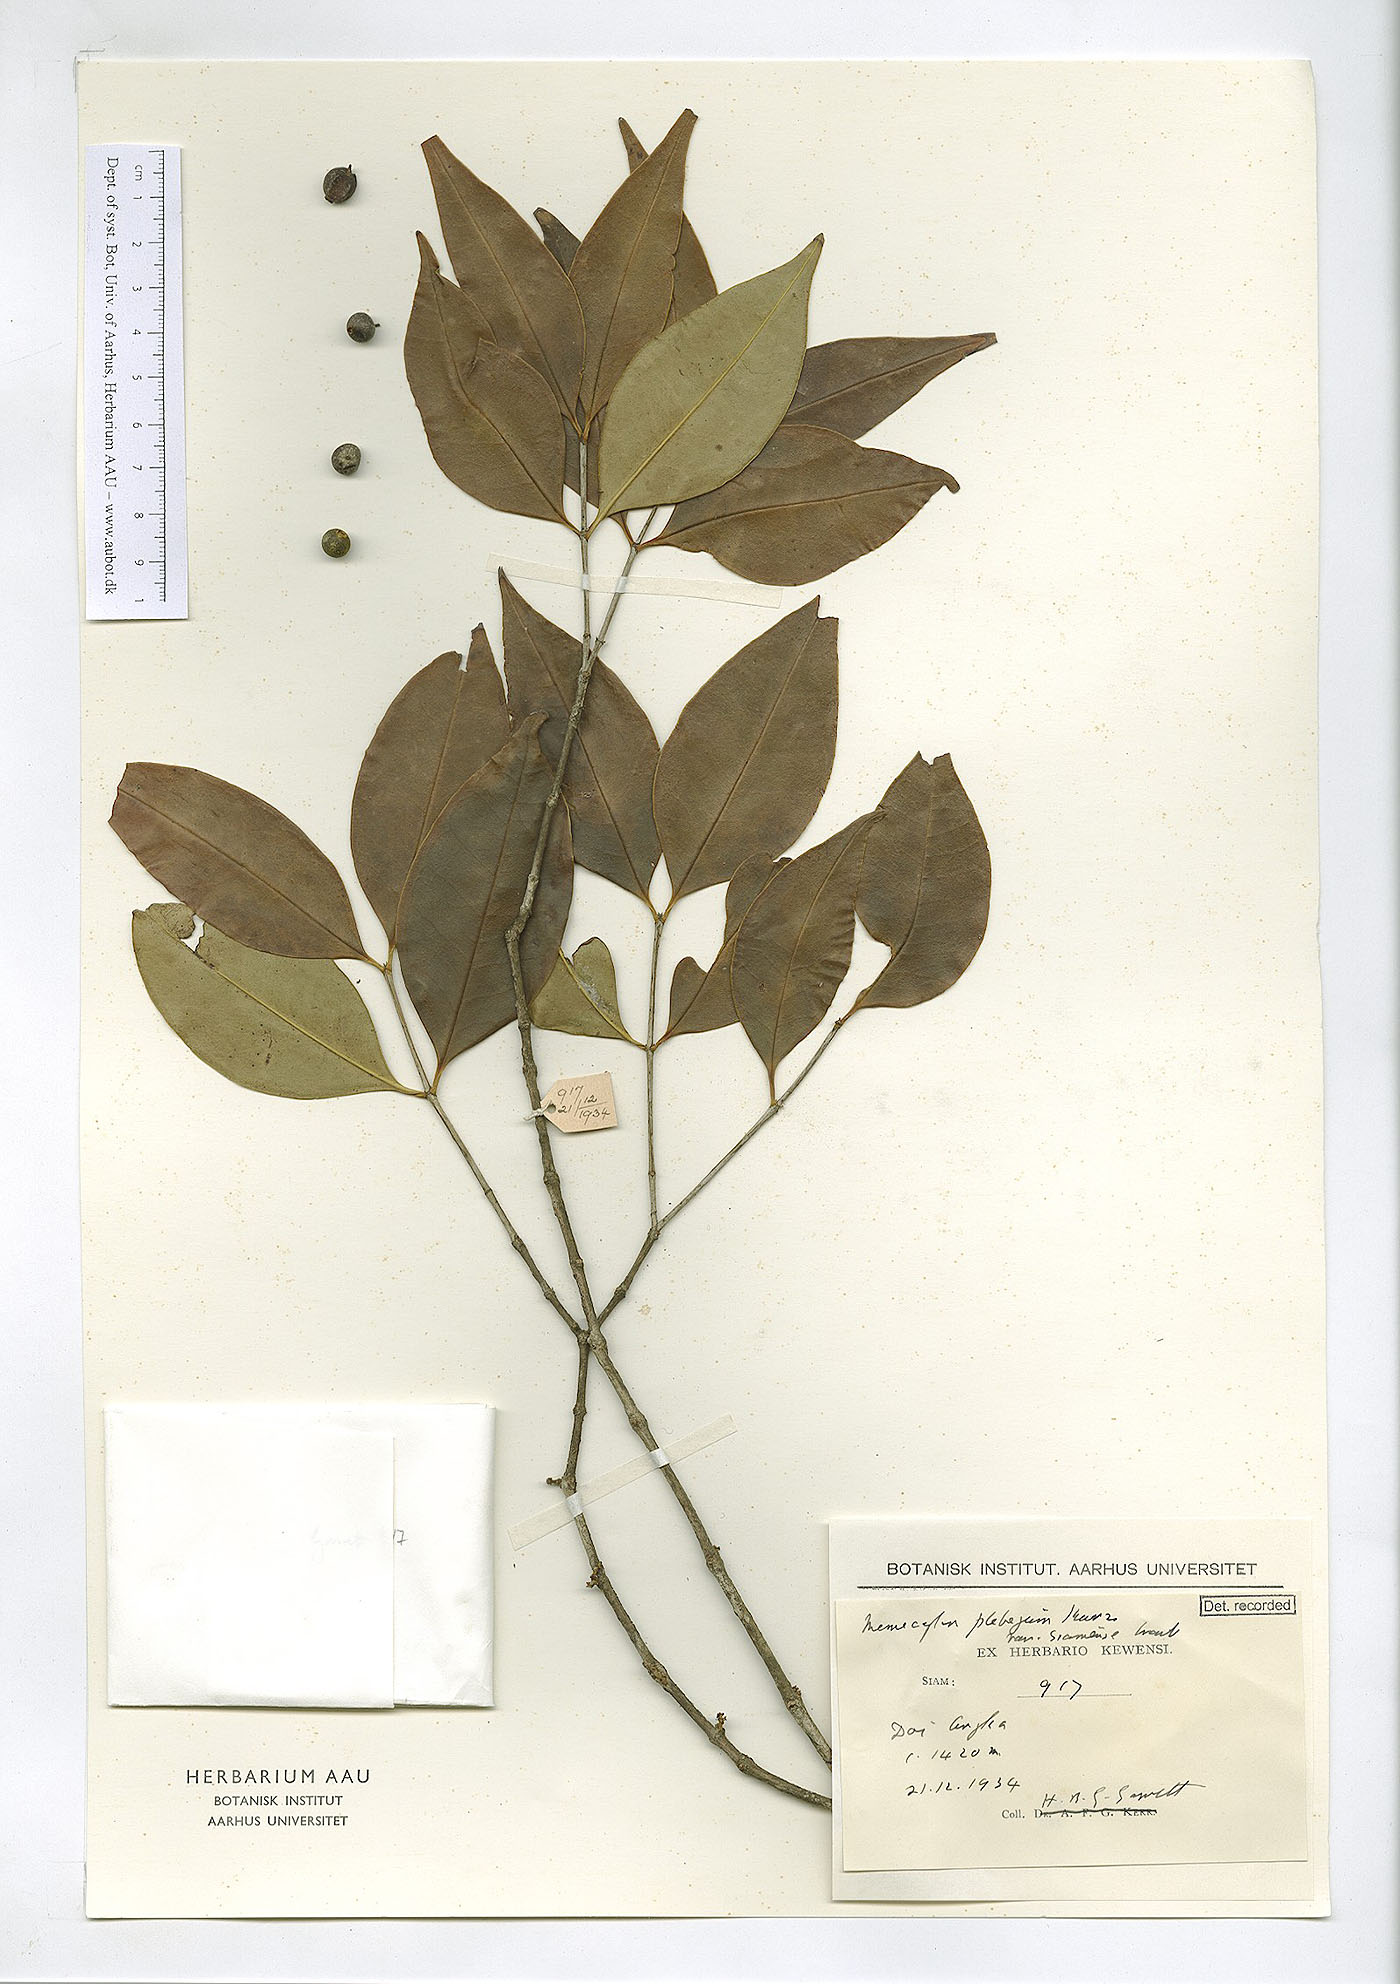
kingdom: Plantae
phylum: Tracheophyta
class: Magnoliopsida
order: Myrtales
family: Melastomataceae
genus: Memecylon
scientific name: Memecylon plebejum
